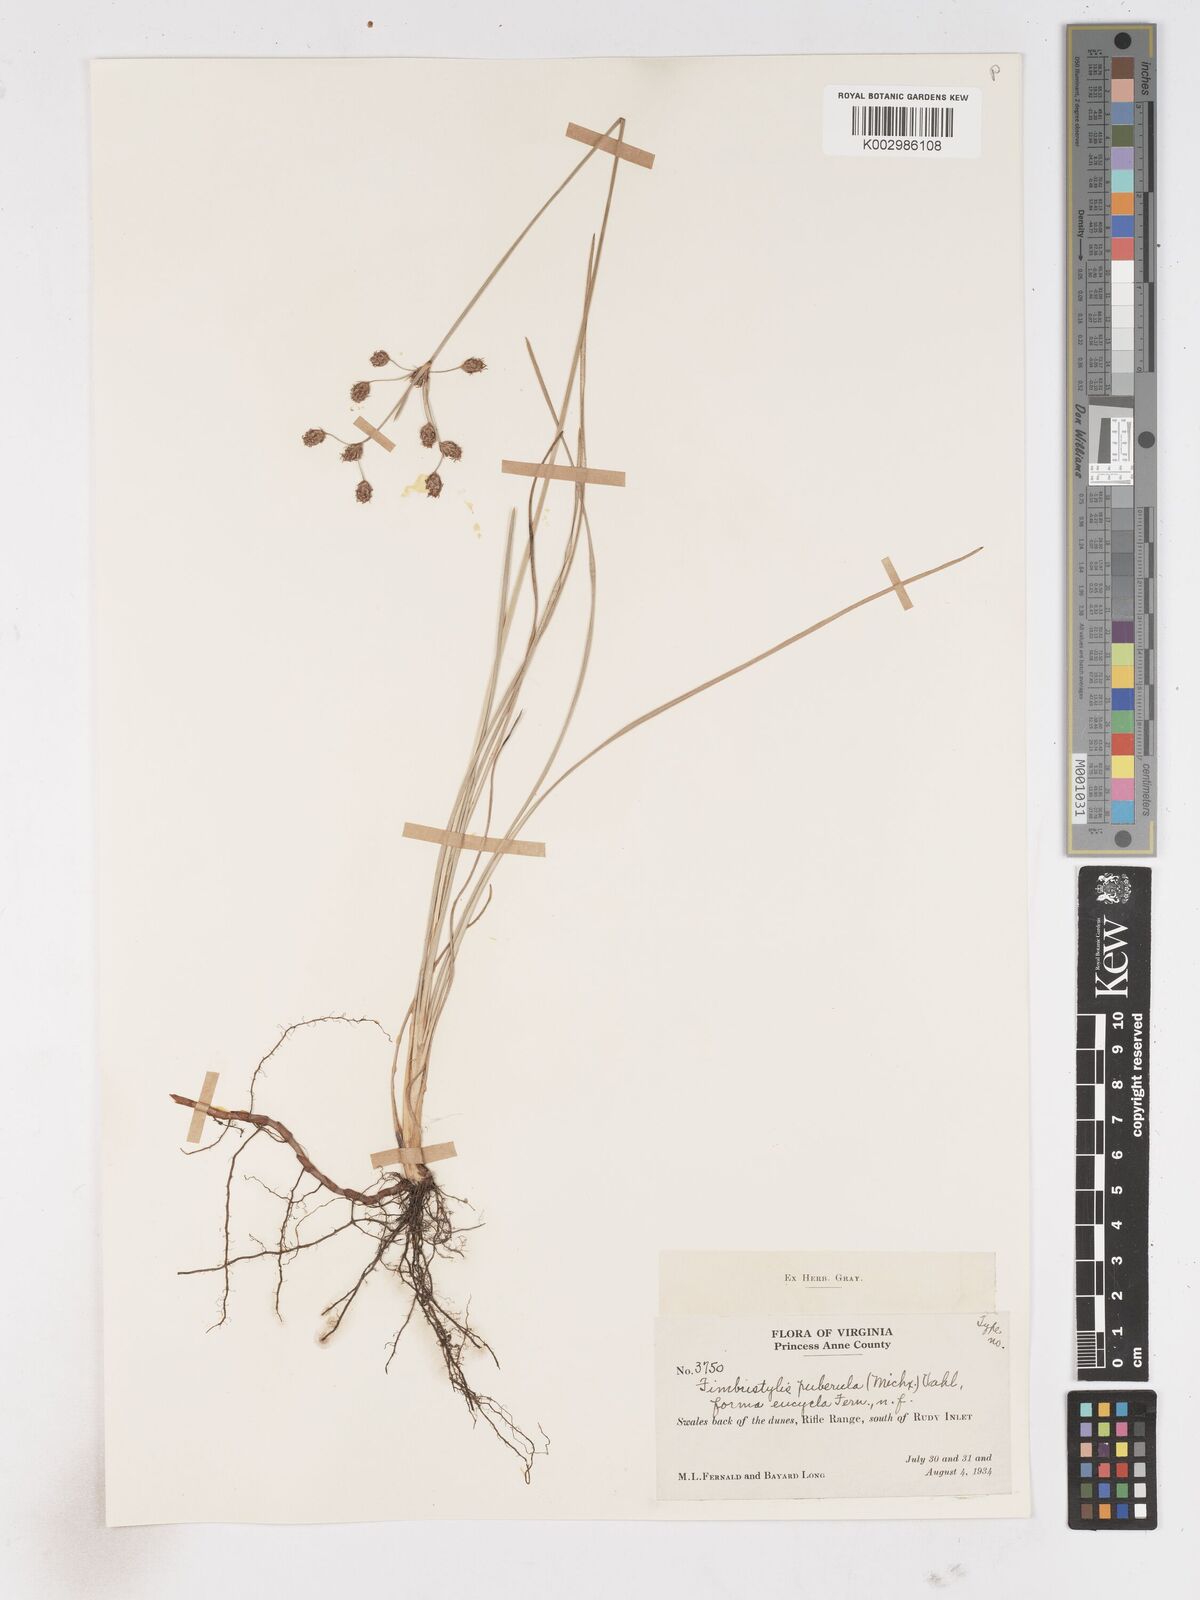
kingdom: Plantae
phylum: Tracheophyta
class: Liliopsida
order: Poales
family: Cyperaceae
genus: Fimbristylis
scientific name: Fimbristylis puberula
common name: Hairy fimbristylis
